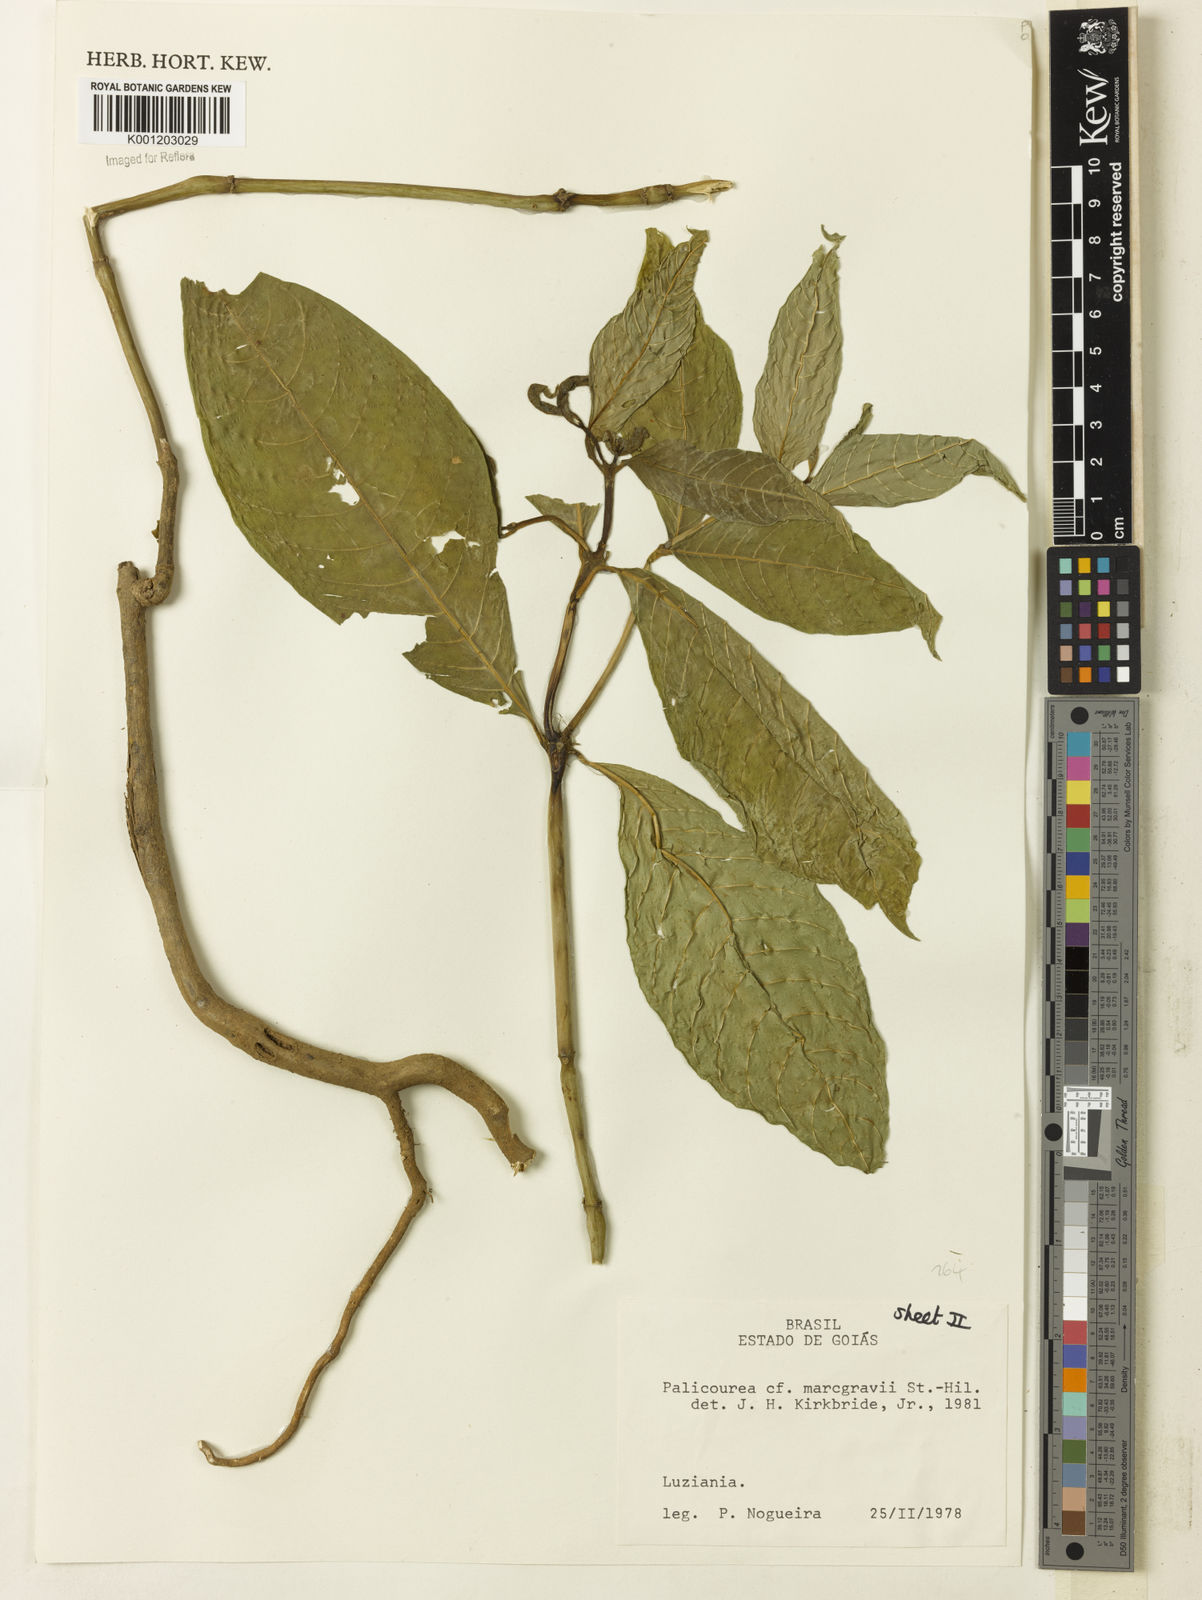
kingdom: Plantae
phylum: Tracheophyta
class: Magnoliopsida
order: Gentianales
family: Rubiaceae
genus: Palicourea
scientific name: Palicourea marcgravii
